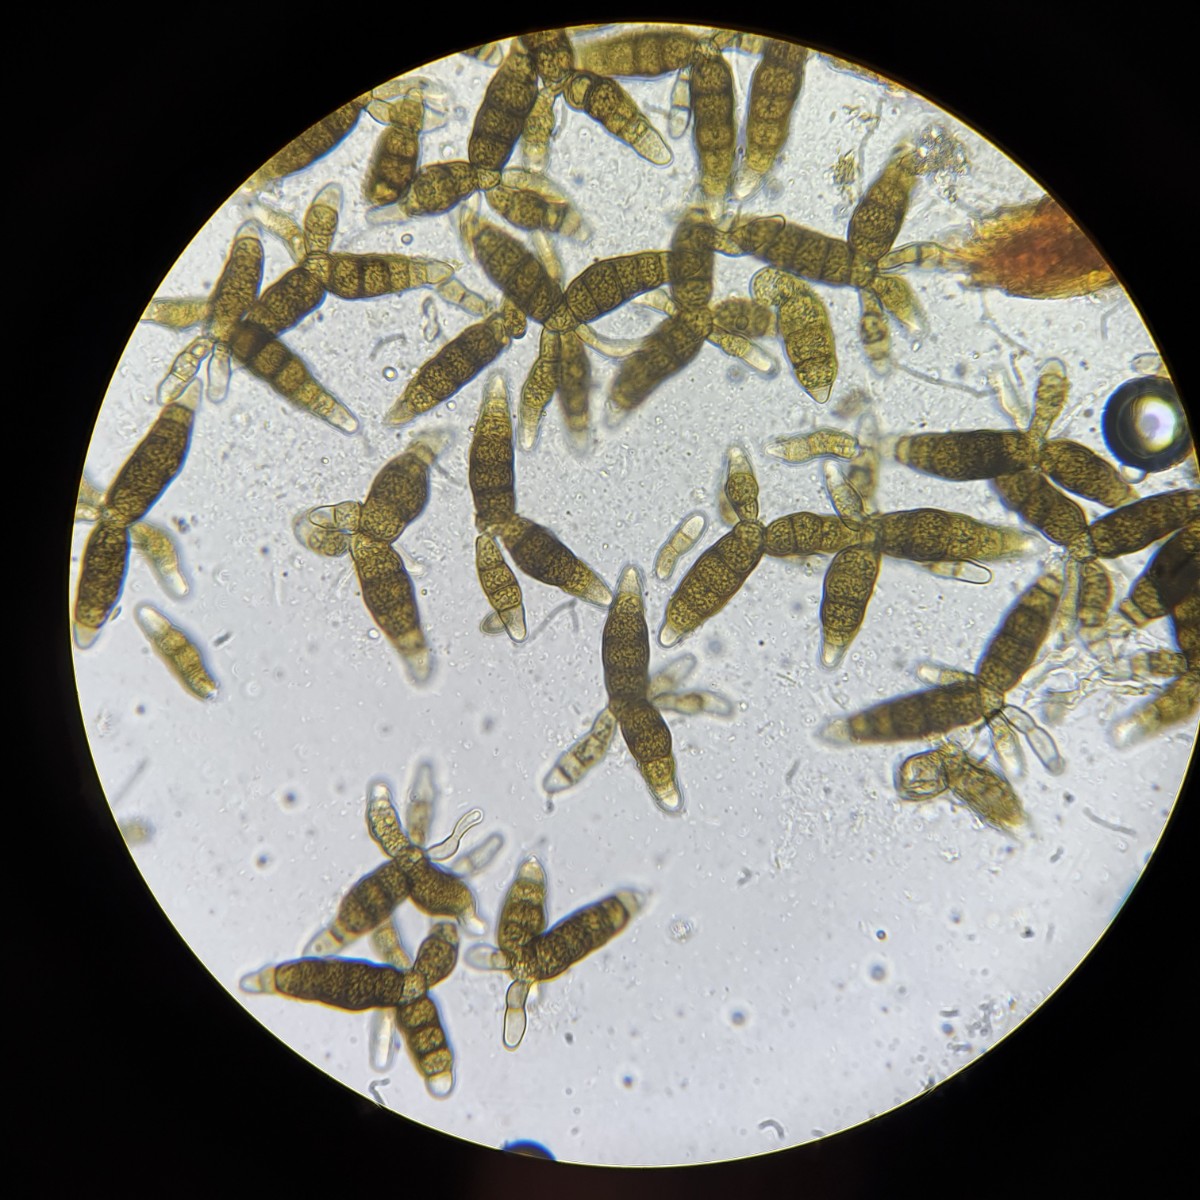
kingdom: Fungi
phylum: Ascomycota
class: Dothideomycetes
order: Pleosporales
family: Pleomassariaceae
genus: Pleomassaria
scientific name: Pleomassaria siparia
